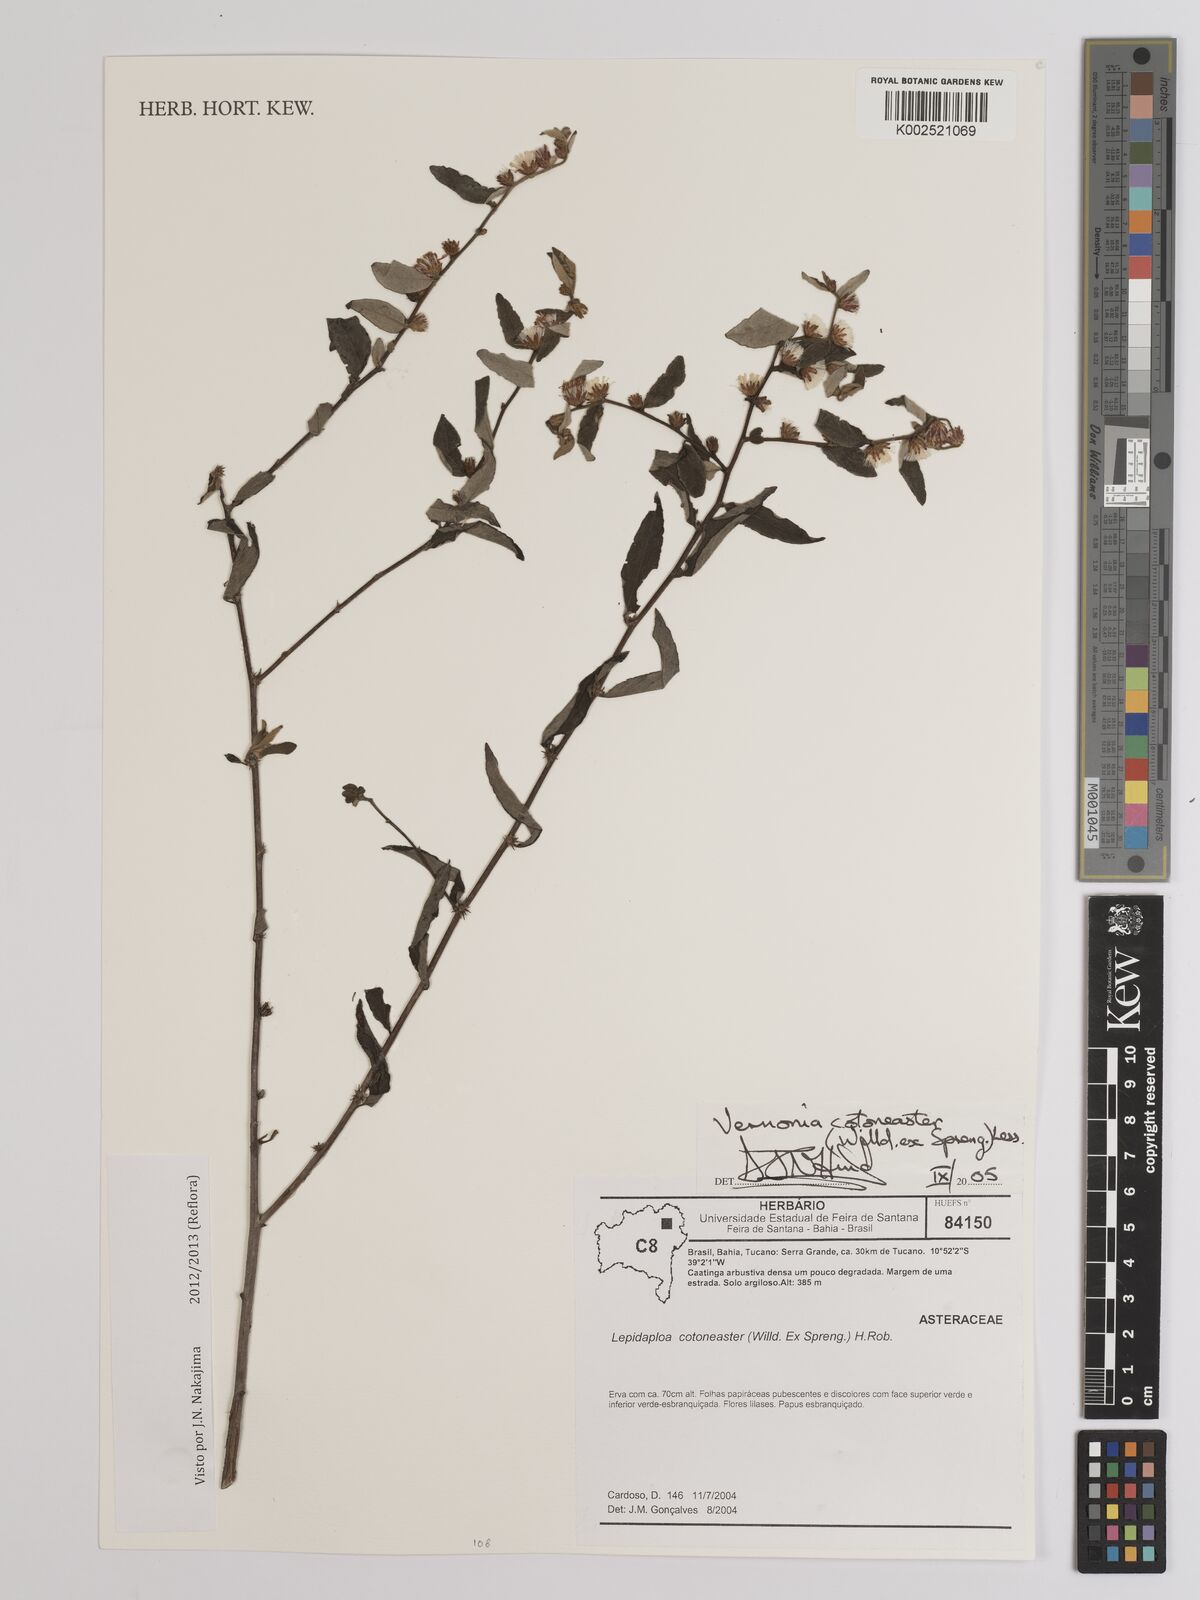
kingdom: Plantae
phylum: Tracheophyta
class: Magnoliopsida
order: Asterales
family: Asteraceae
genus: Lepidaploa
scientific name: Lepidaploa cotoneaster
